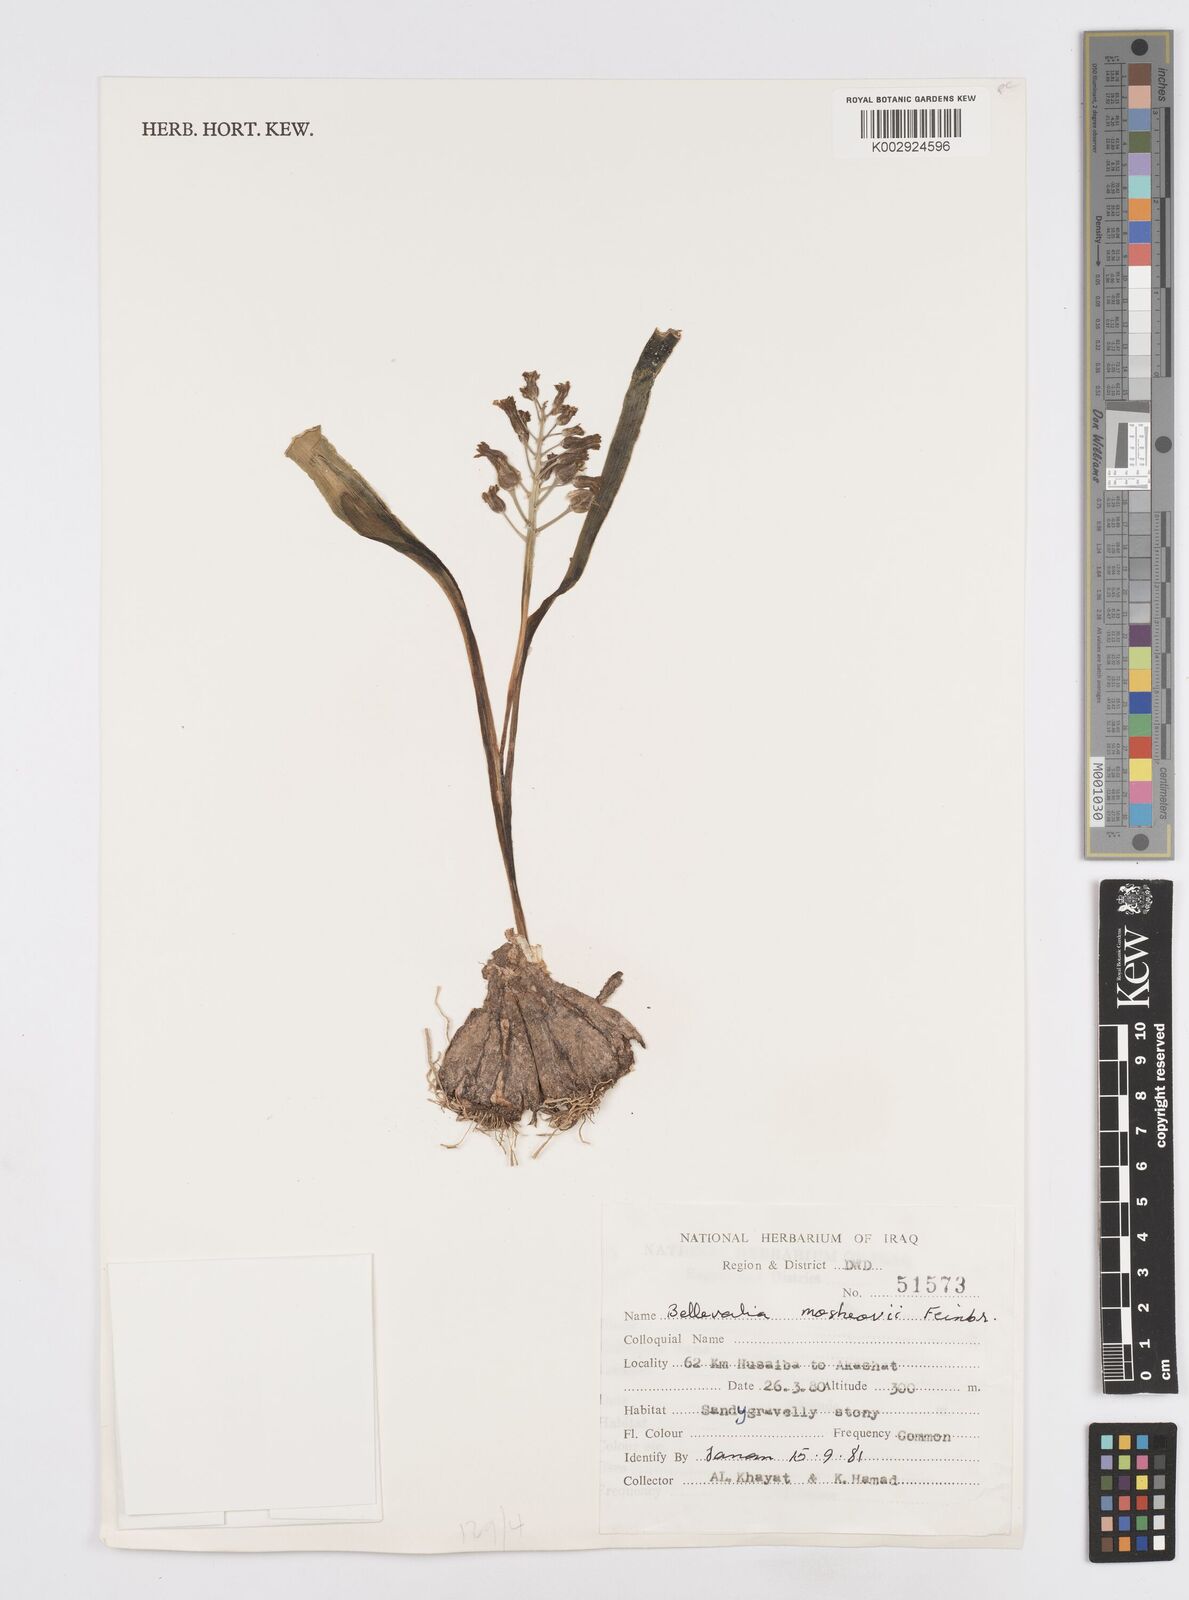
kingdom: Plantae
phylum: Tracheophyta
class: Liliopsida
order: Asparagales
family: Asparagaceae
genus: Bellevalia
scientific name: Bellevalia mosheovii
